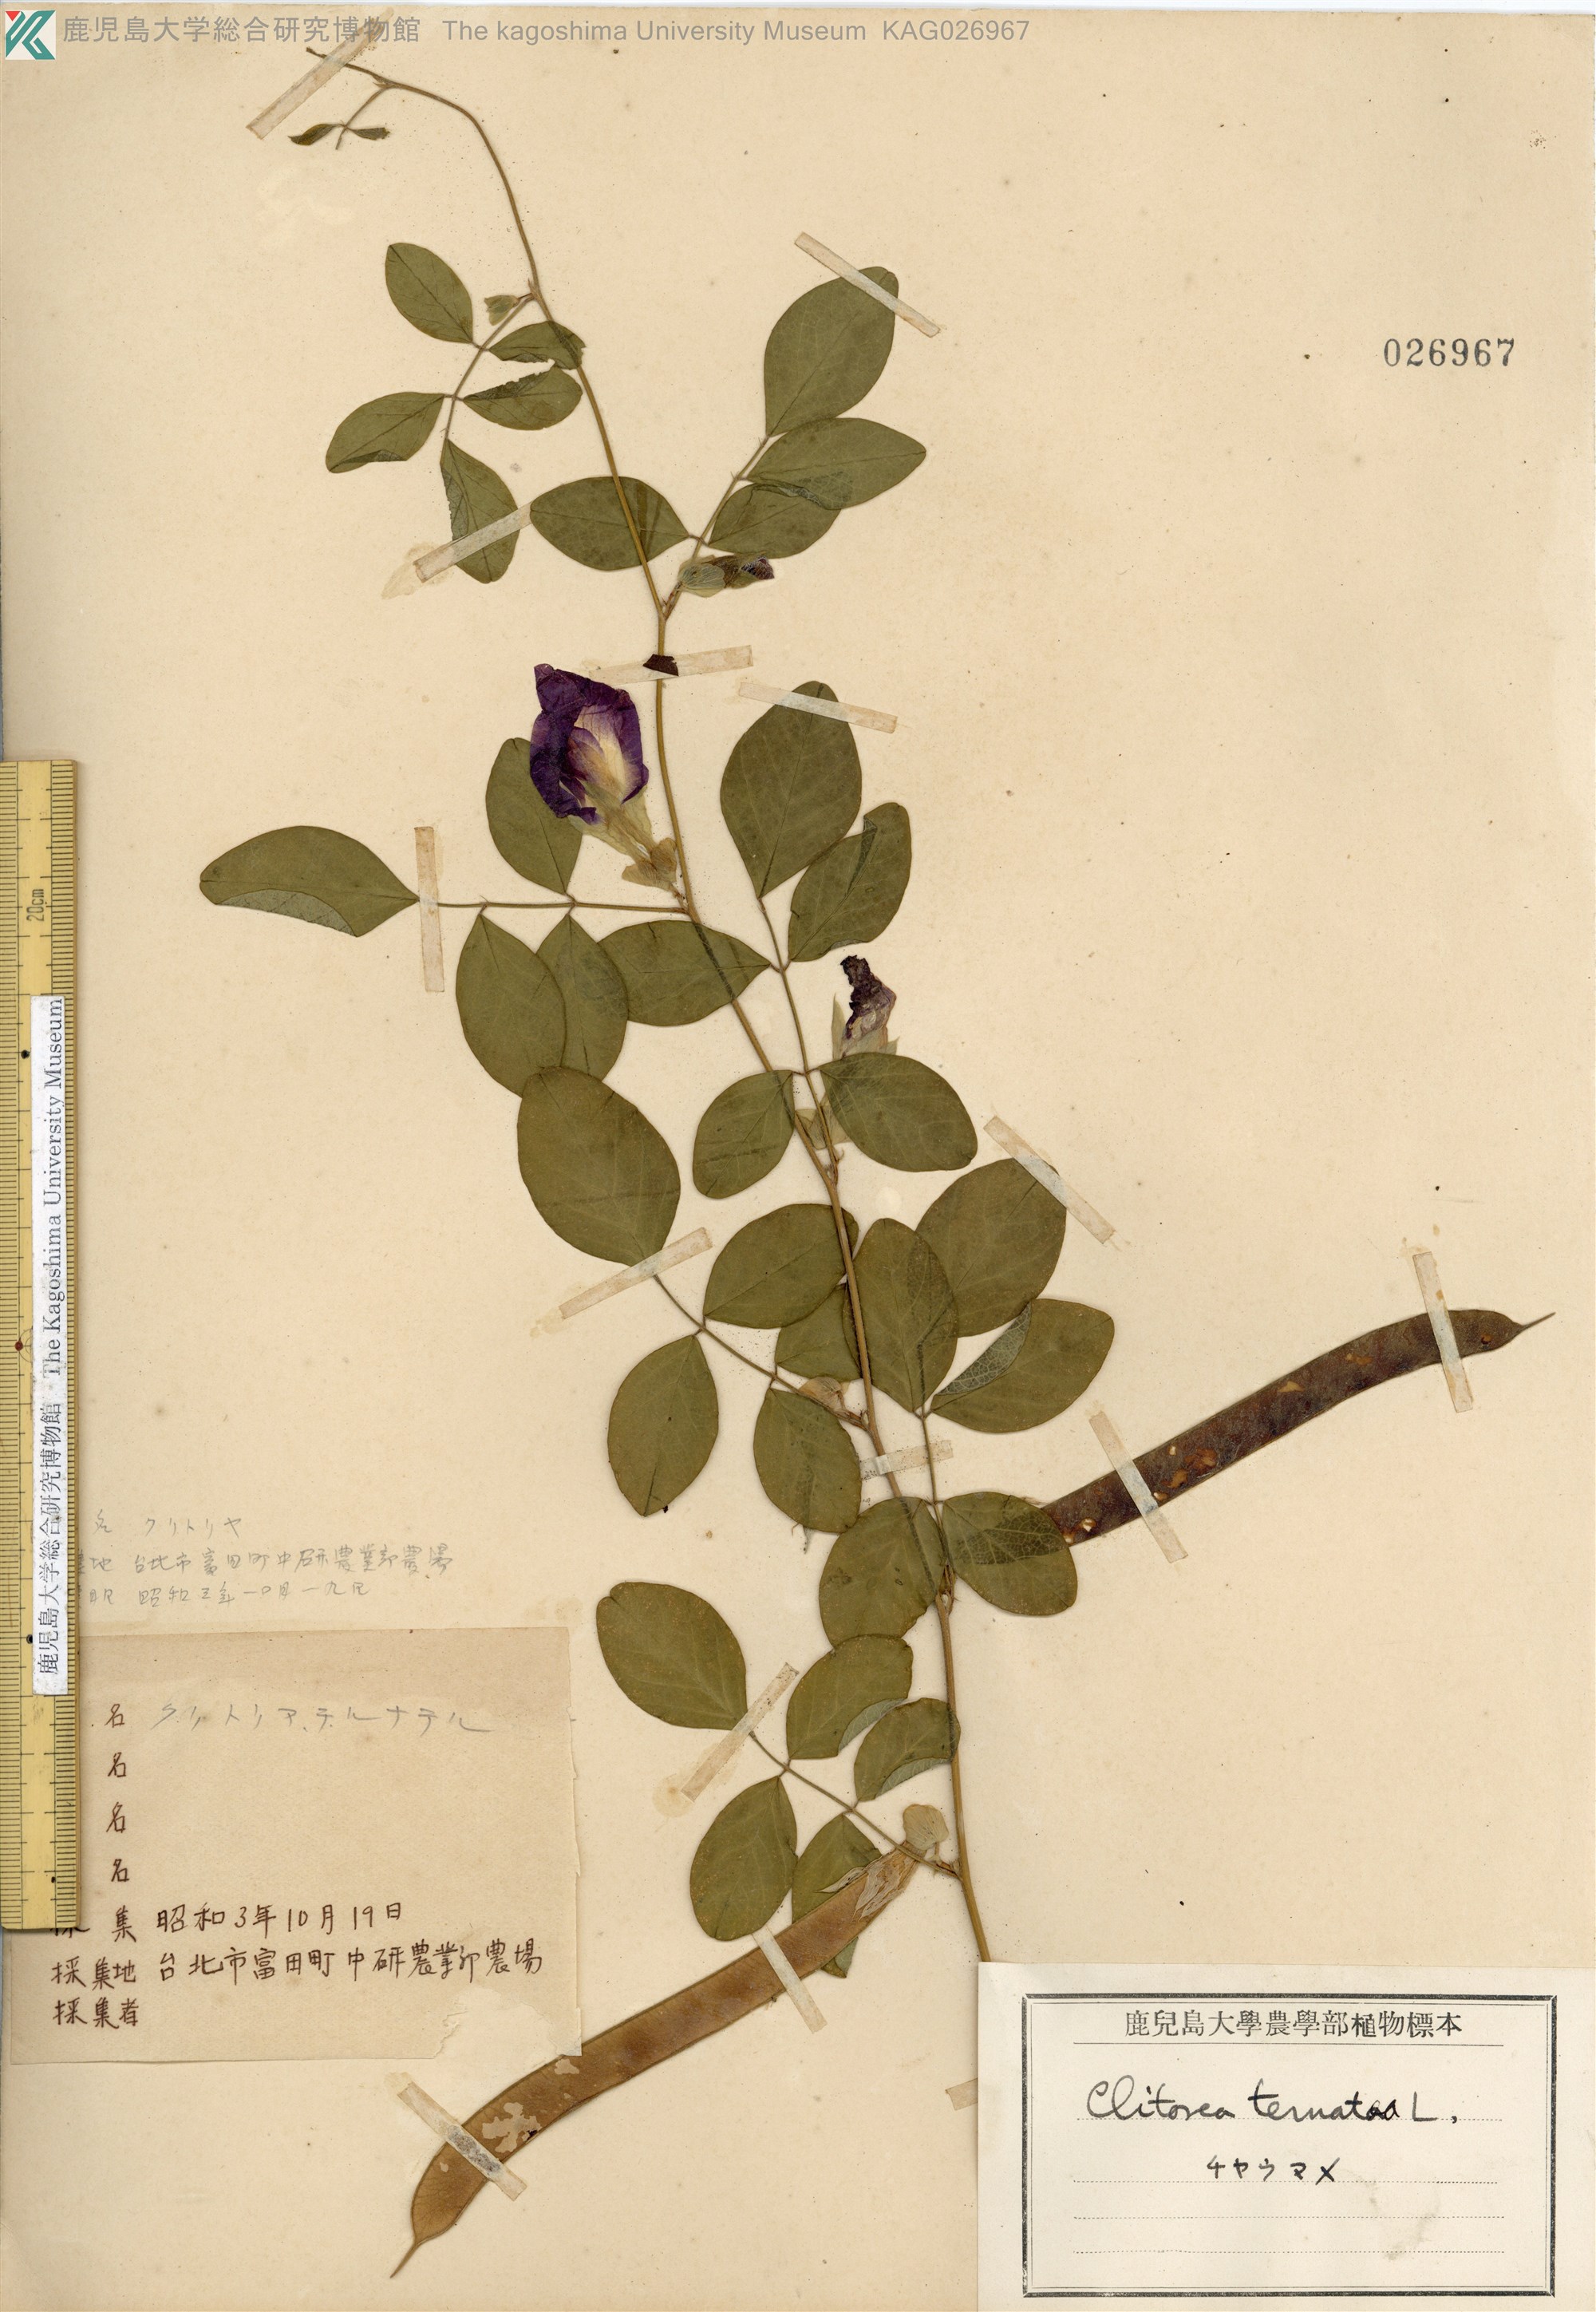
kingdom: Plantae
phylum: Tracheophyta
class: Magnoliopsida
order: Fabales
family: Fabaceae
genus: Clitoria
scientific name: Clitoria ternatea
